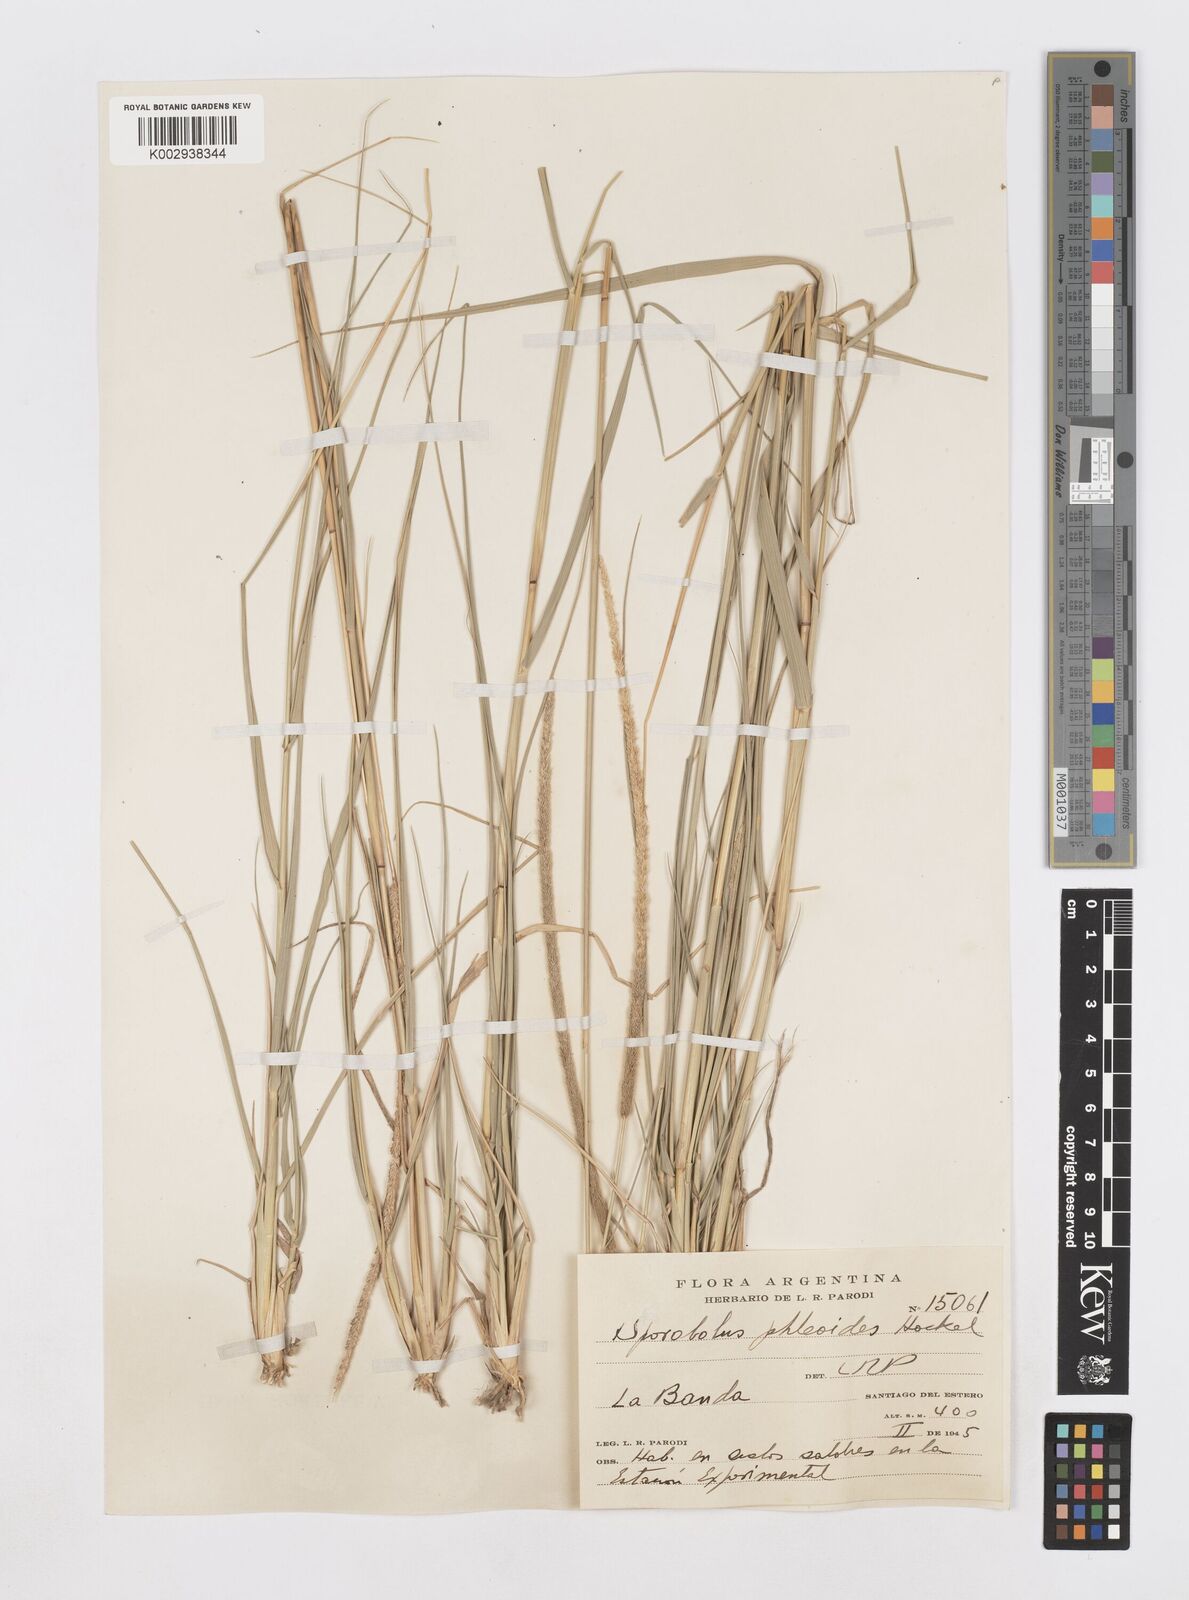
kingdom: Plantae
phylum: Tracheophyta
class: Liliopsida
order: Poales
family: Poaceae
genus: Sporobolus
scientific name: Sporobolus phleoides
